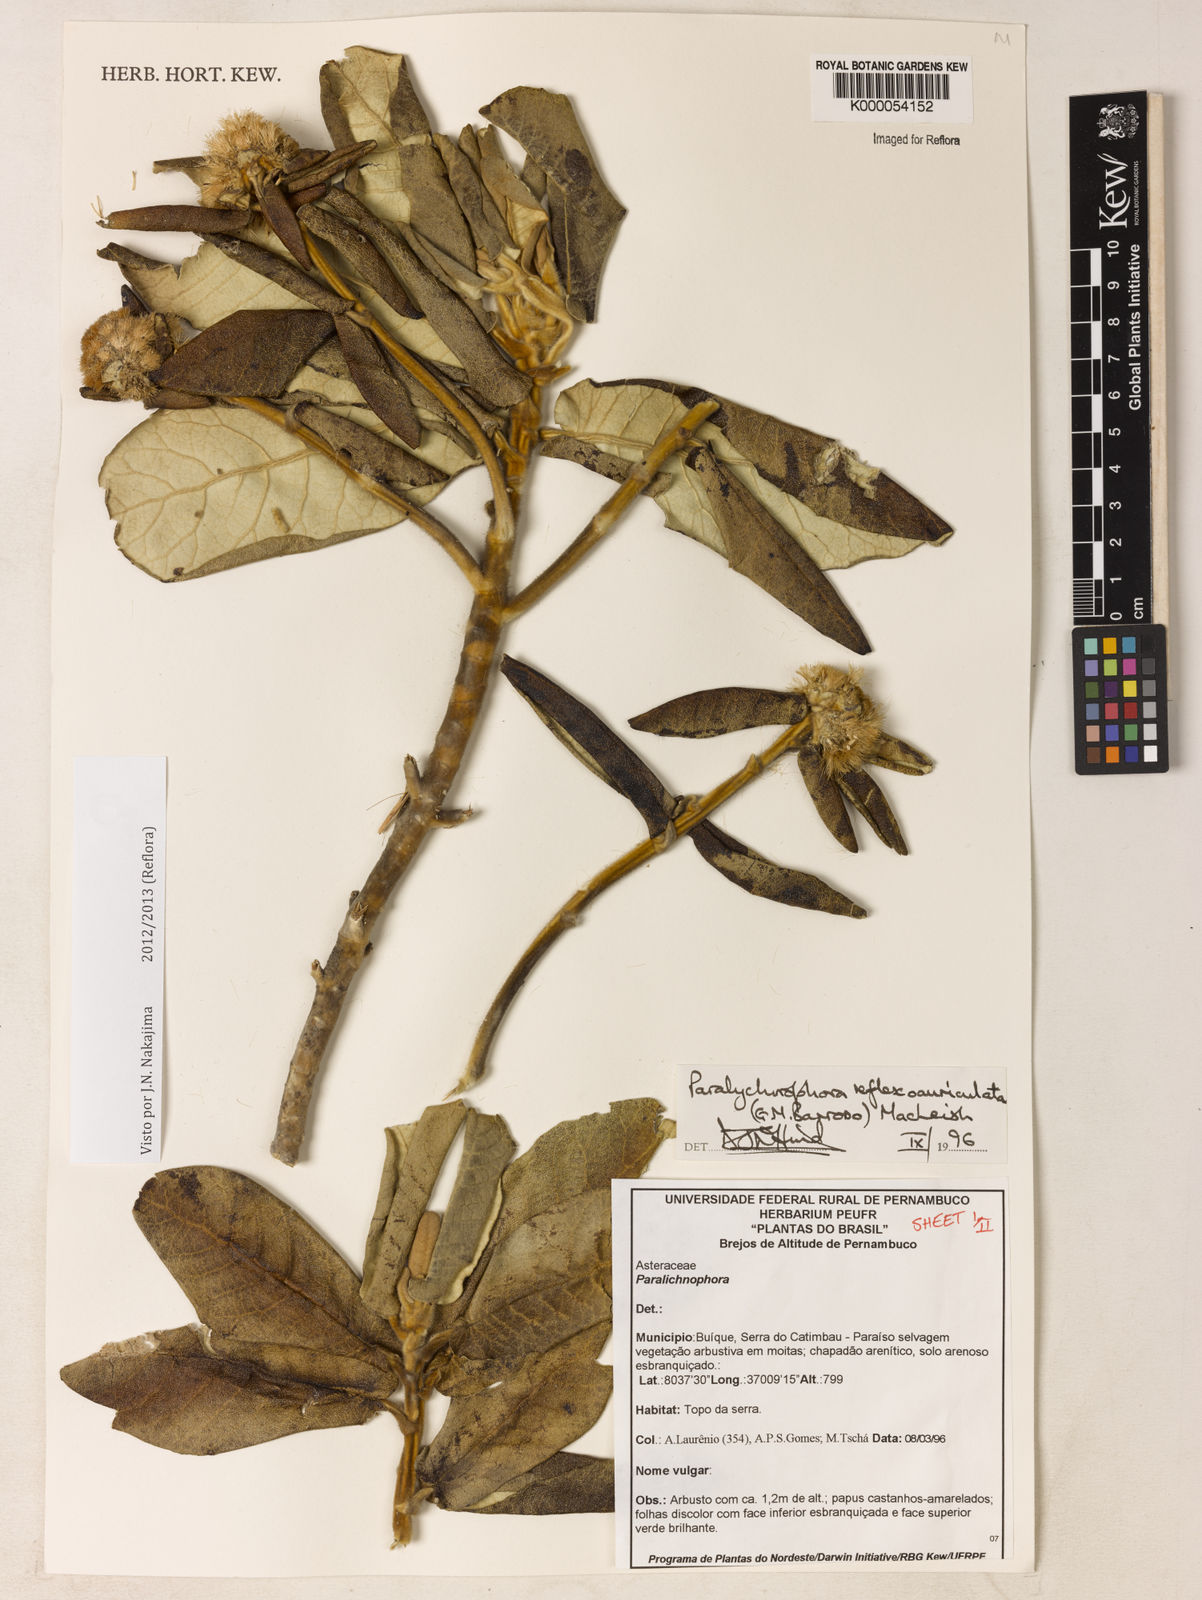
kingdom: Plantae
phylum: Tracheophyta
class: Magnoliopsida
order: Asterales
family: Asteraceae
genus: Paralychnophora
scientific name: Paralychnophora reflexoauriculata
